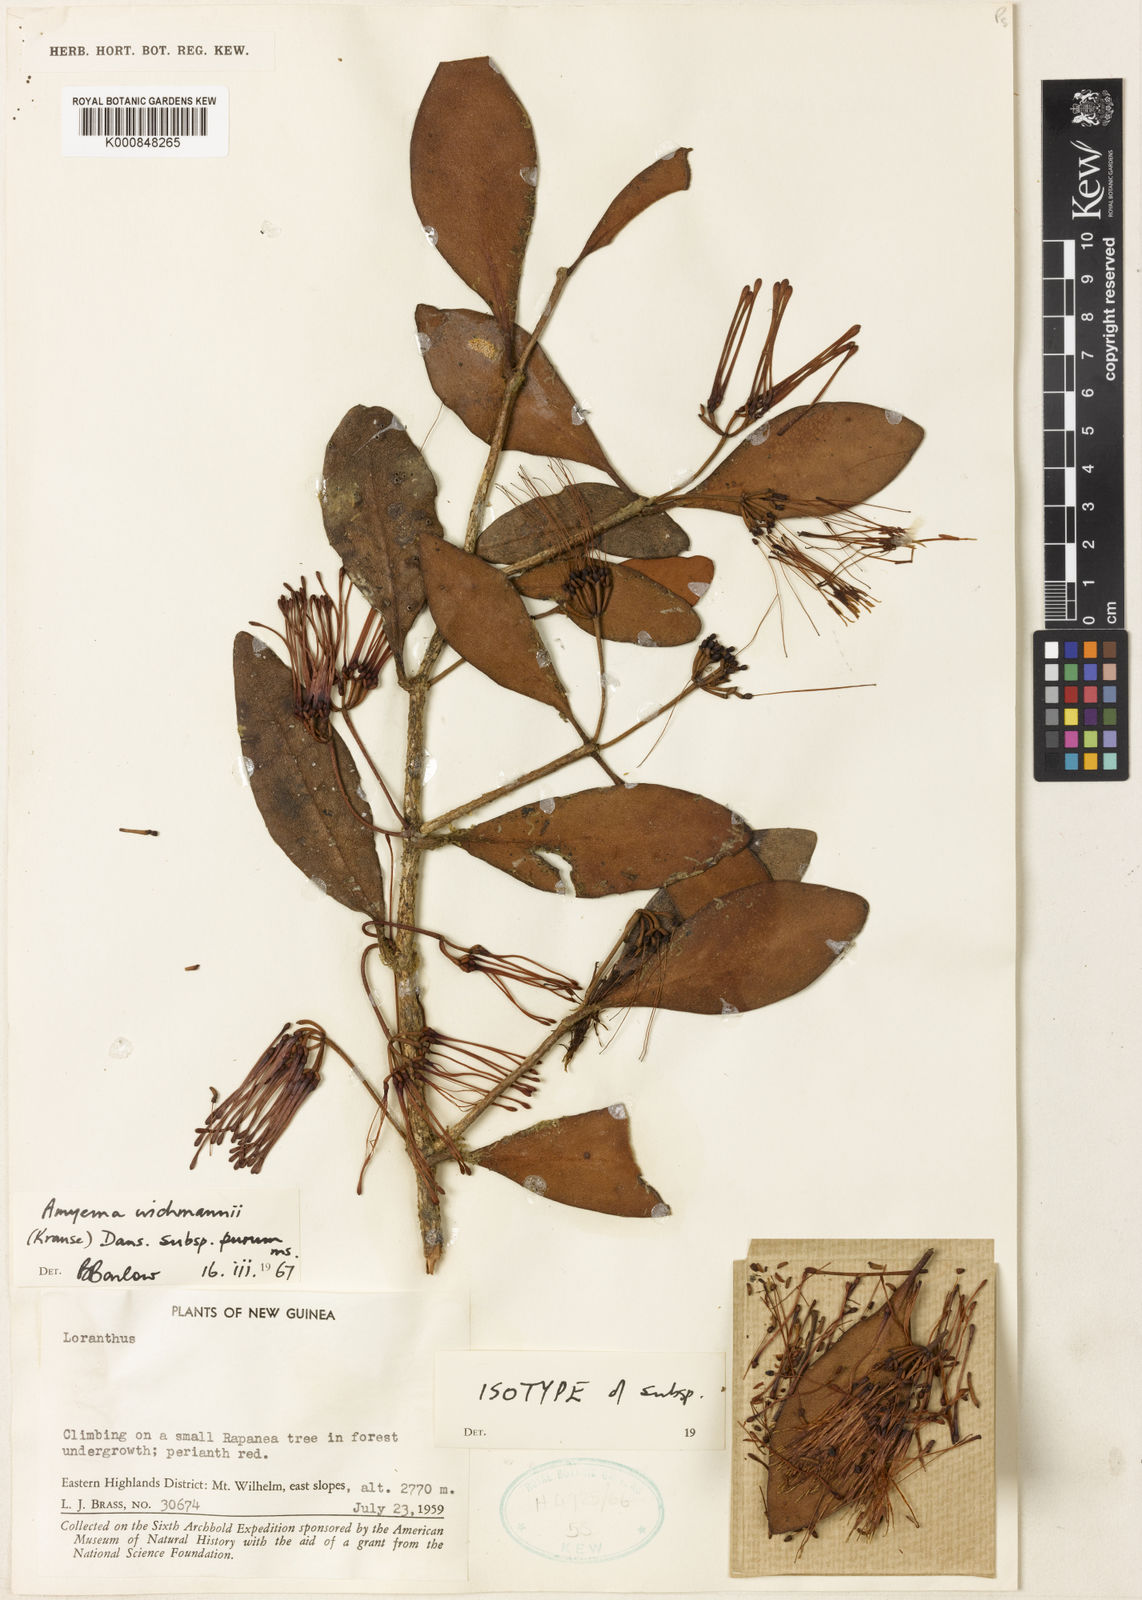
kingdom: Plantae
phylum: Tracheophyta
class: Magnoliopsida
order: Santalales
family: Loranthaceae
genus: Amyema
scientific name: Amyema wichmannii
